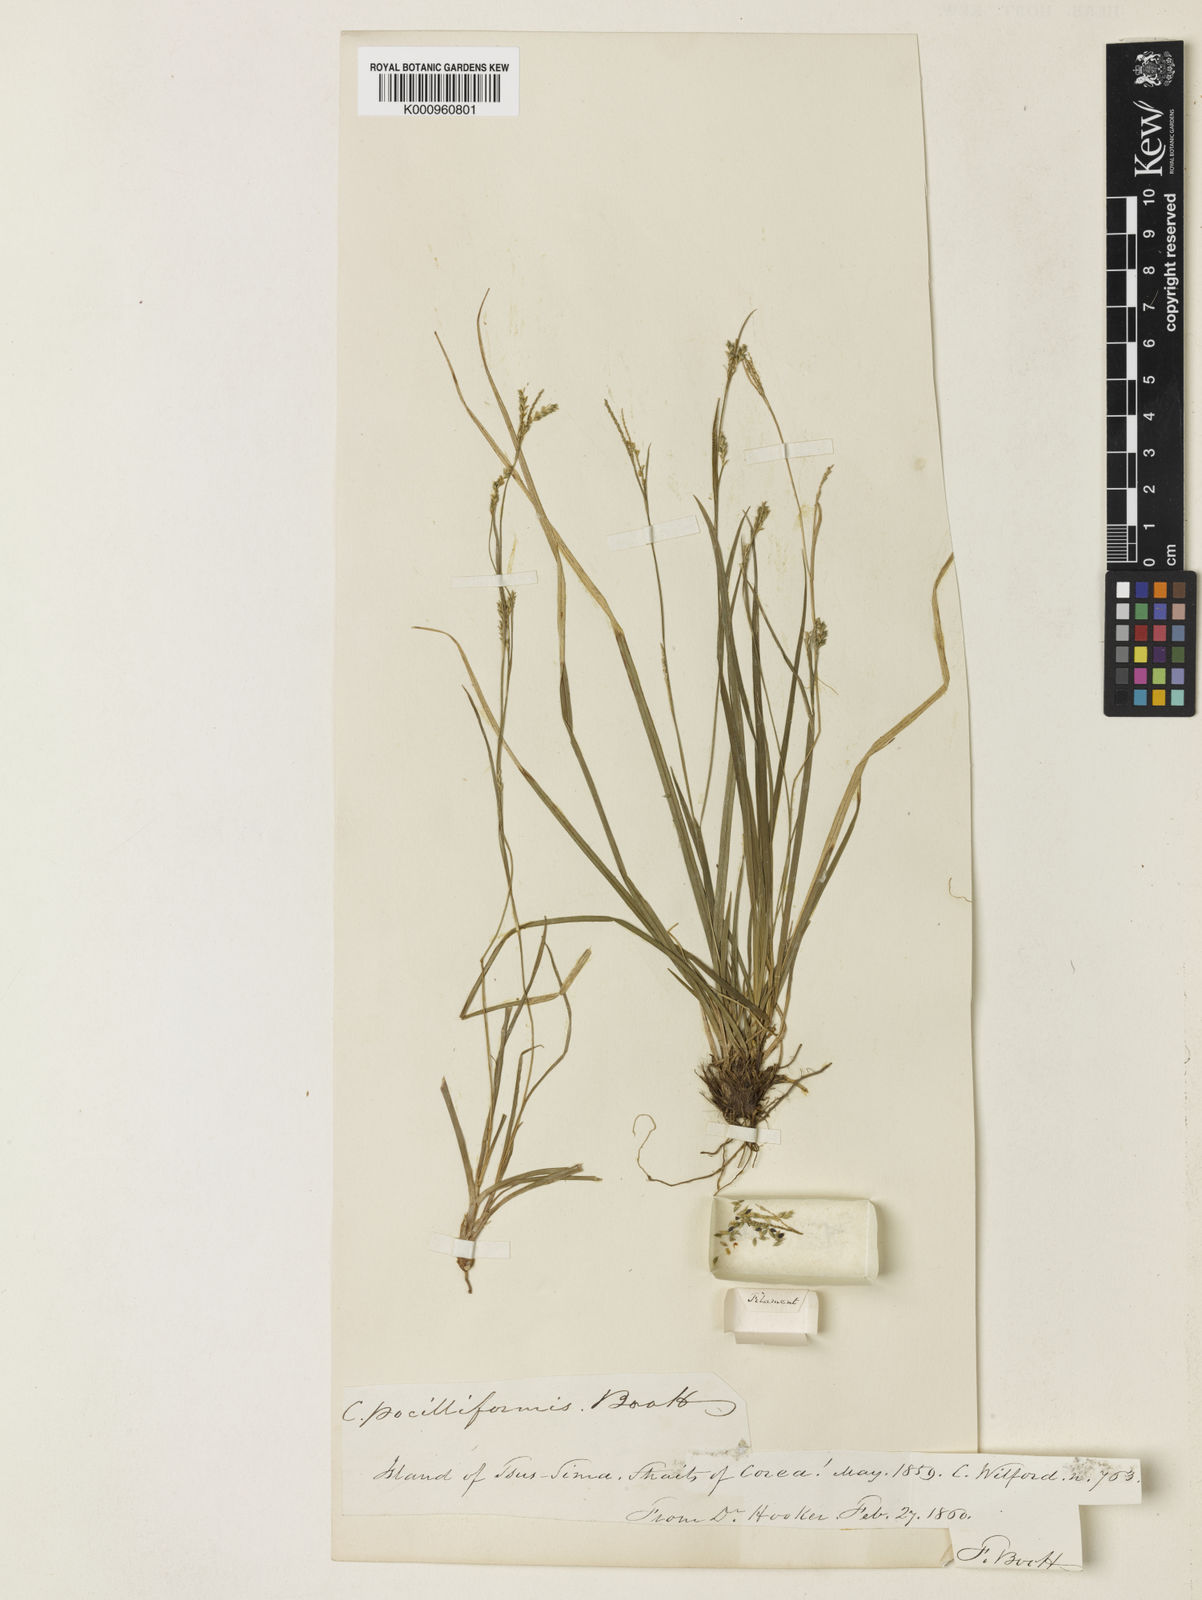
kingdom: Plantae
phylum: Tracheophyta
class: Liliopsida
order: Poales
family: Cyperaceae
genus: Carex
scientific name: Carex tristachya
